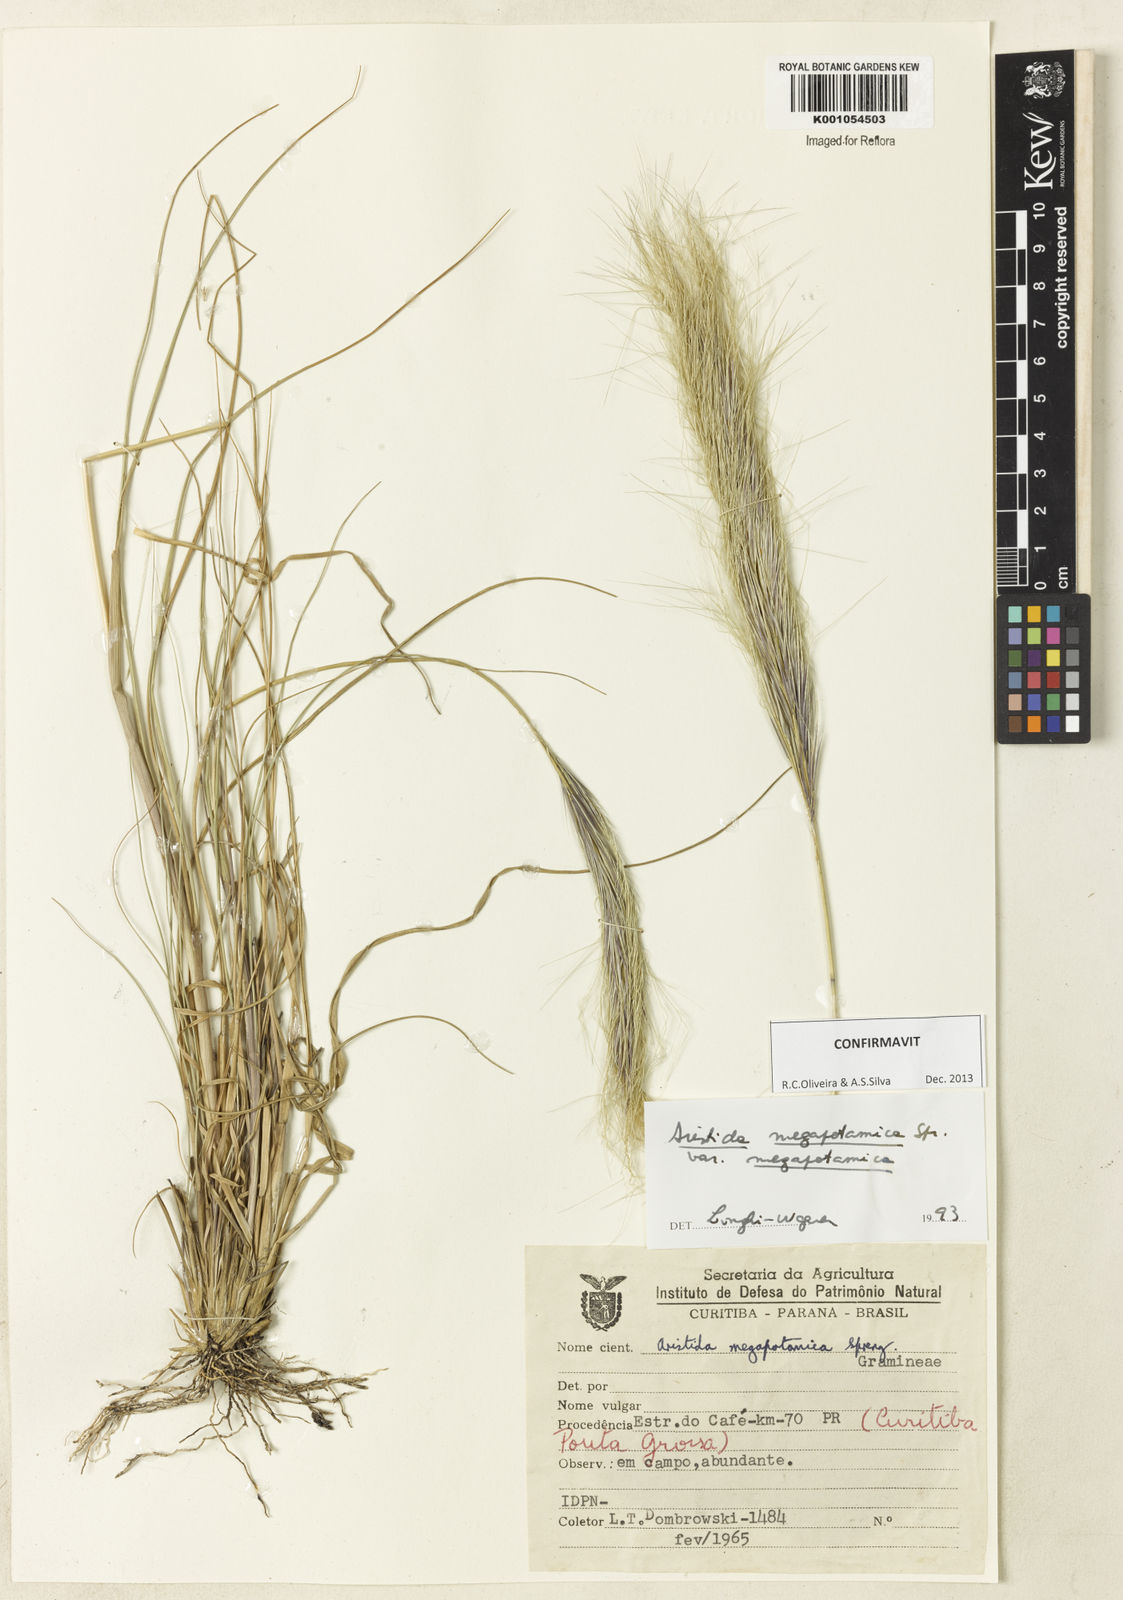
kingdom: Plantae
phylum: Tracheophyta
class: Liliopsida
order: Poales
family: Poaceae
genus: Aristida
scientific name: Aristida megapotamica
